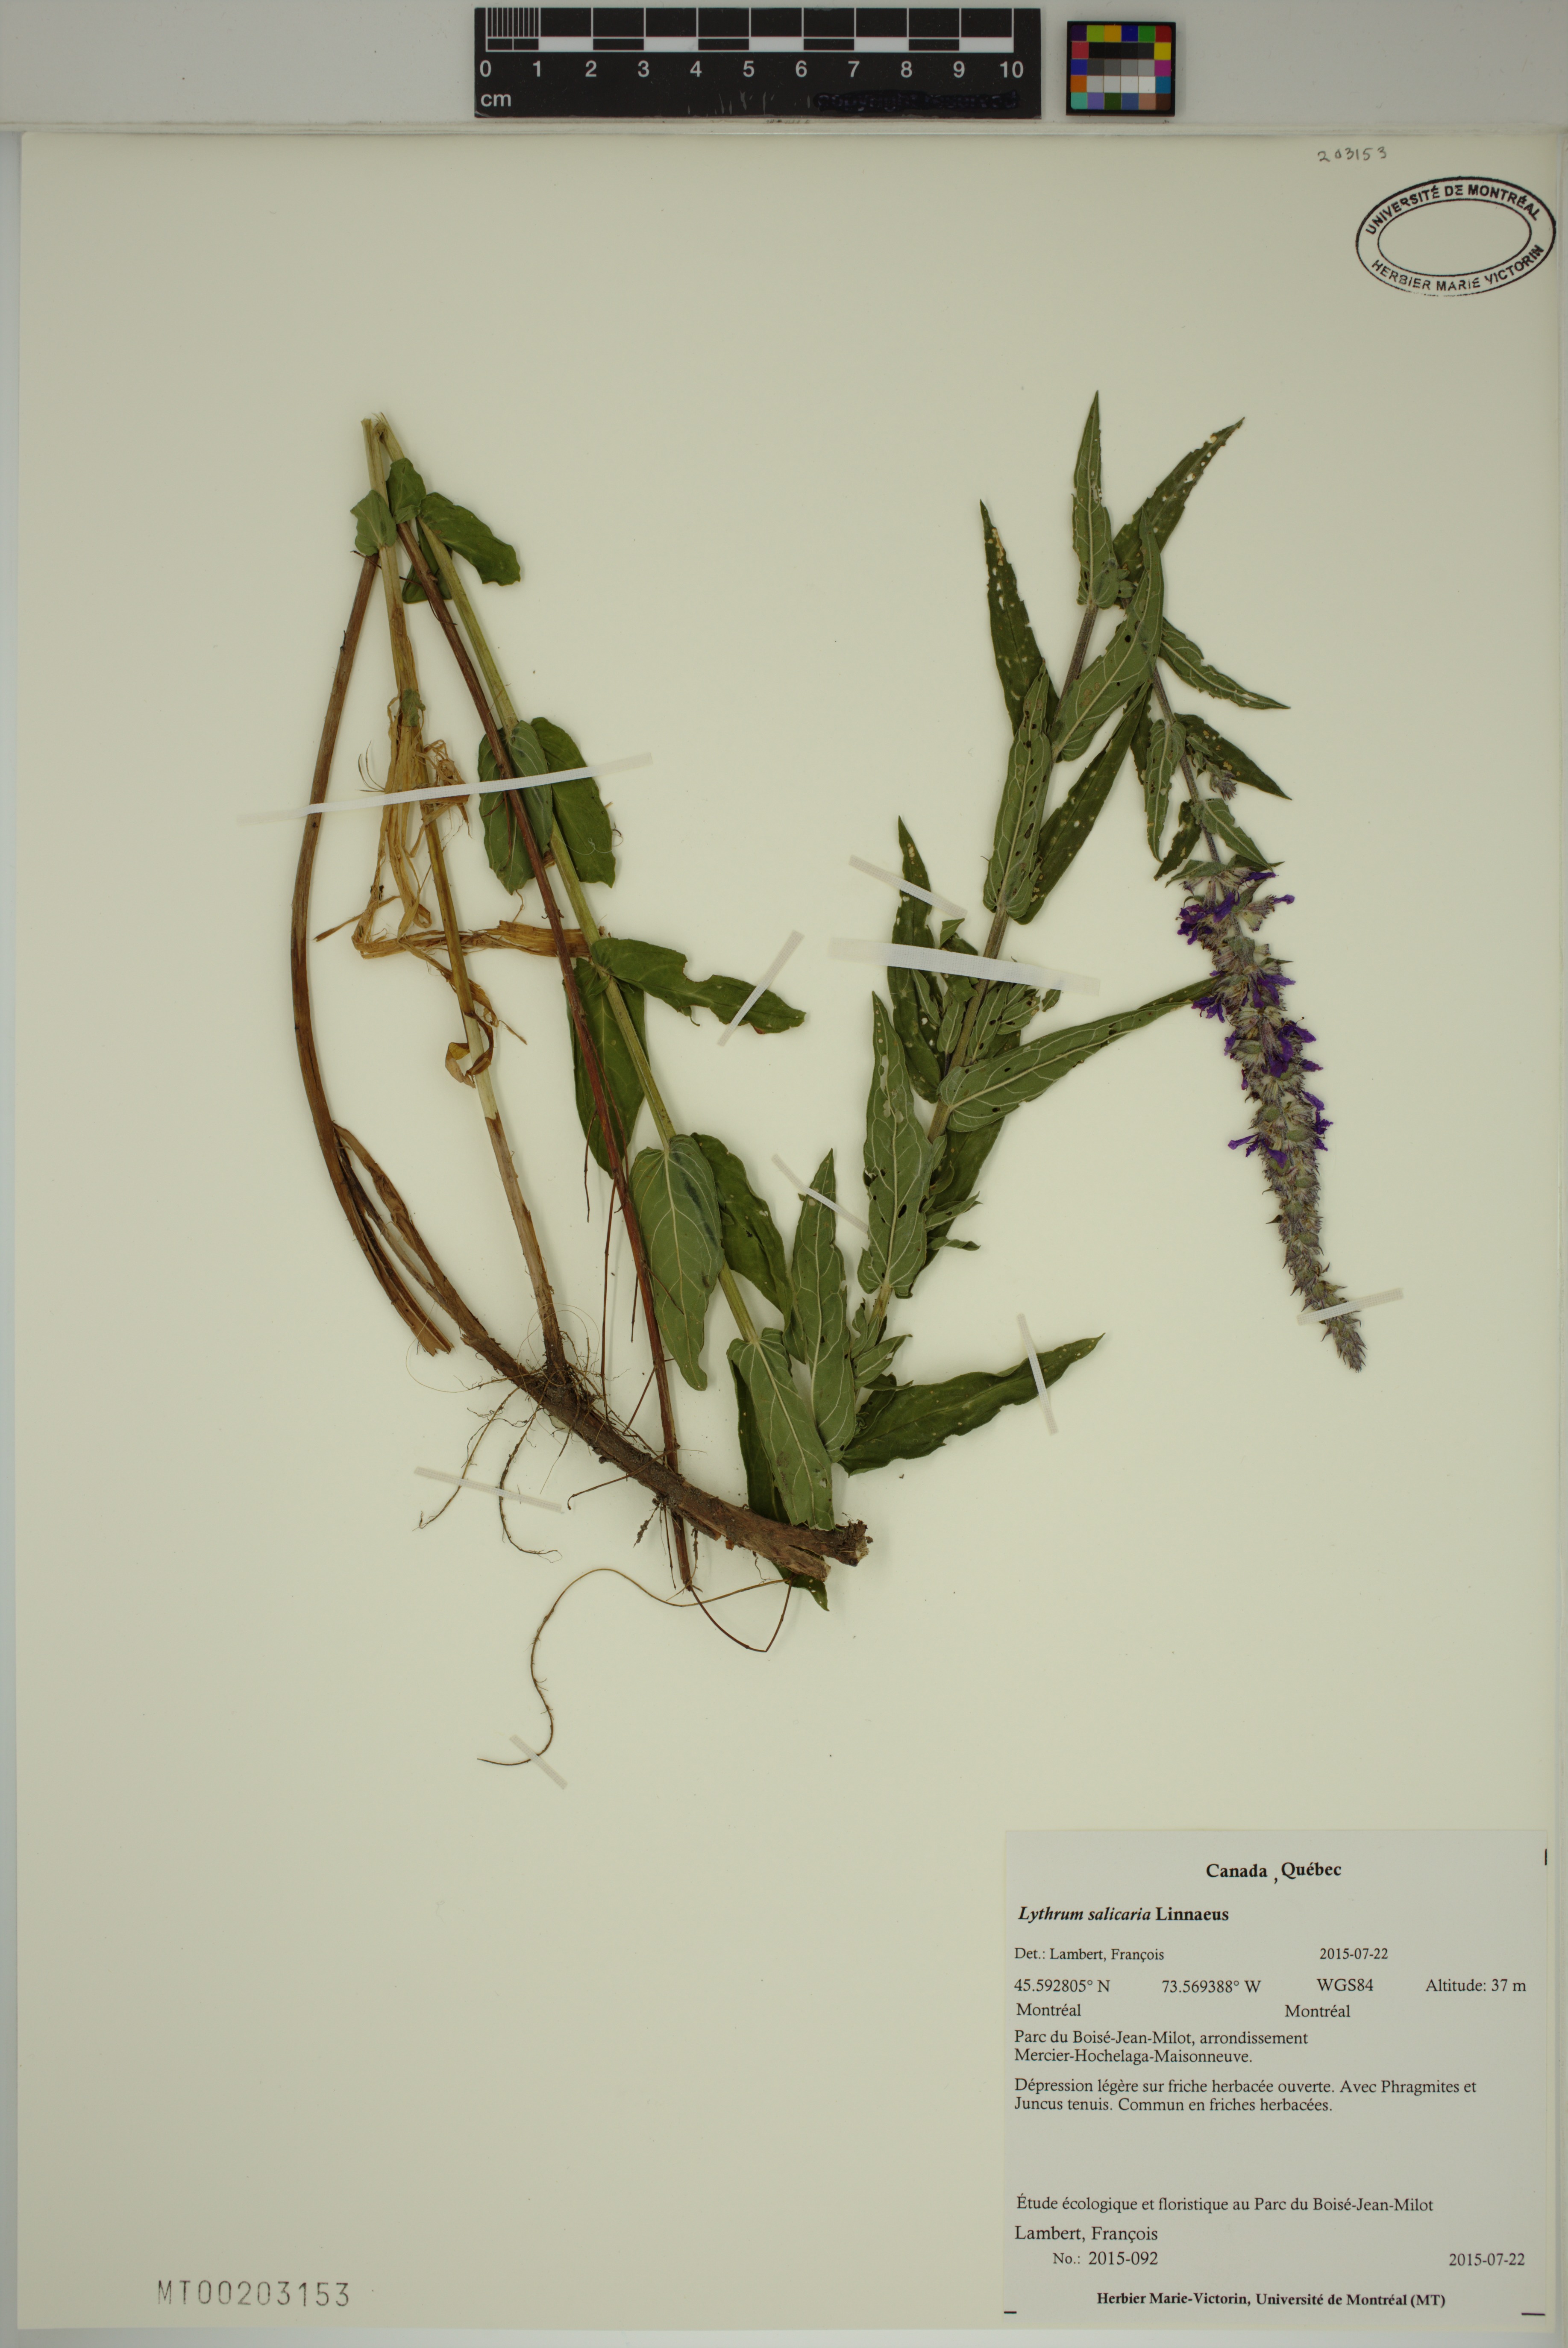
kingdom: Plantae
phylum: Tracheophyta
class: Magnoliopsida
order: Myrtales
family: Lythraceae
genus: Lythrum
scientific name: Lythrum salicaria
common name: Purple loosestrife
